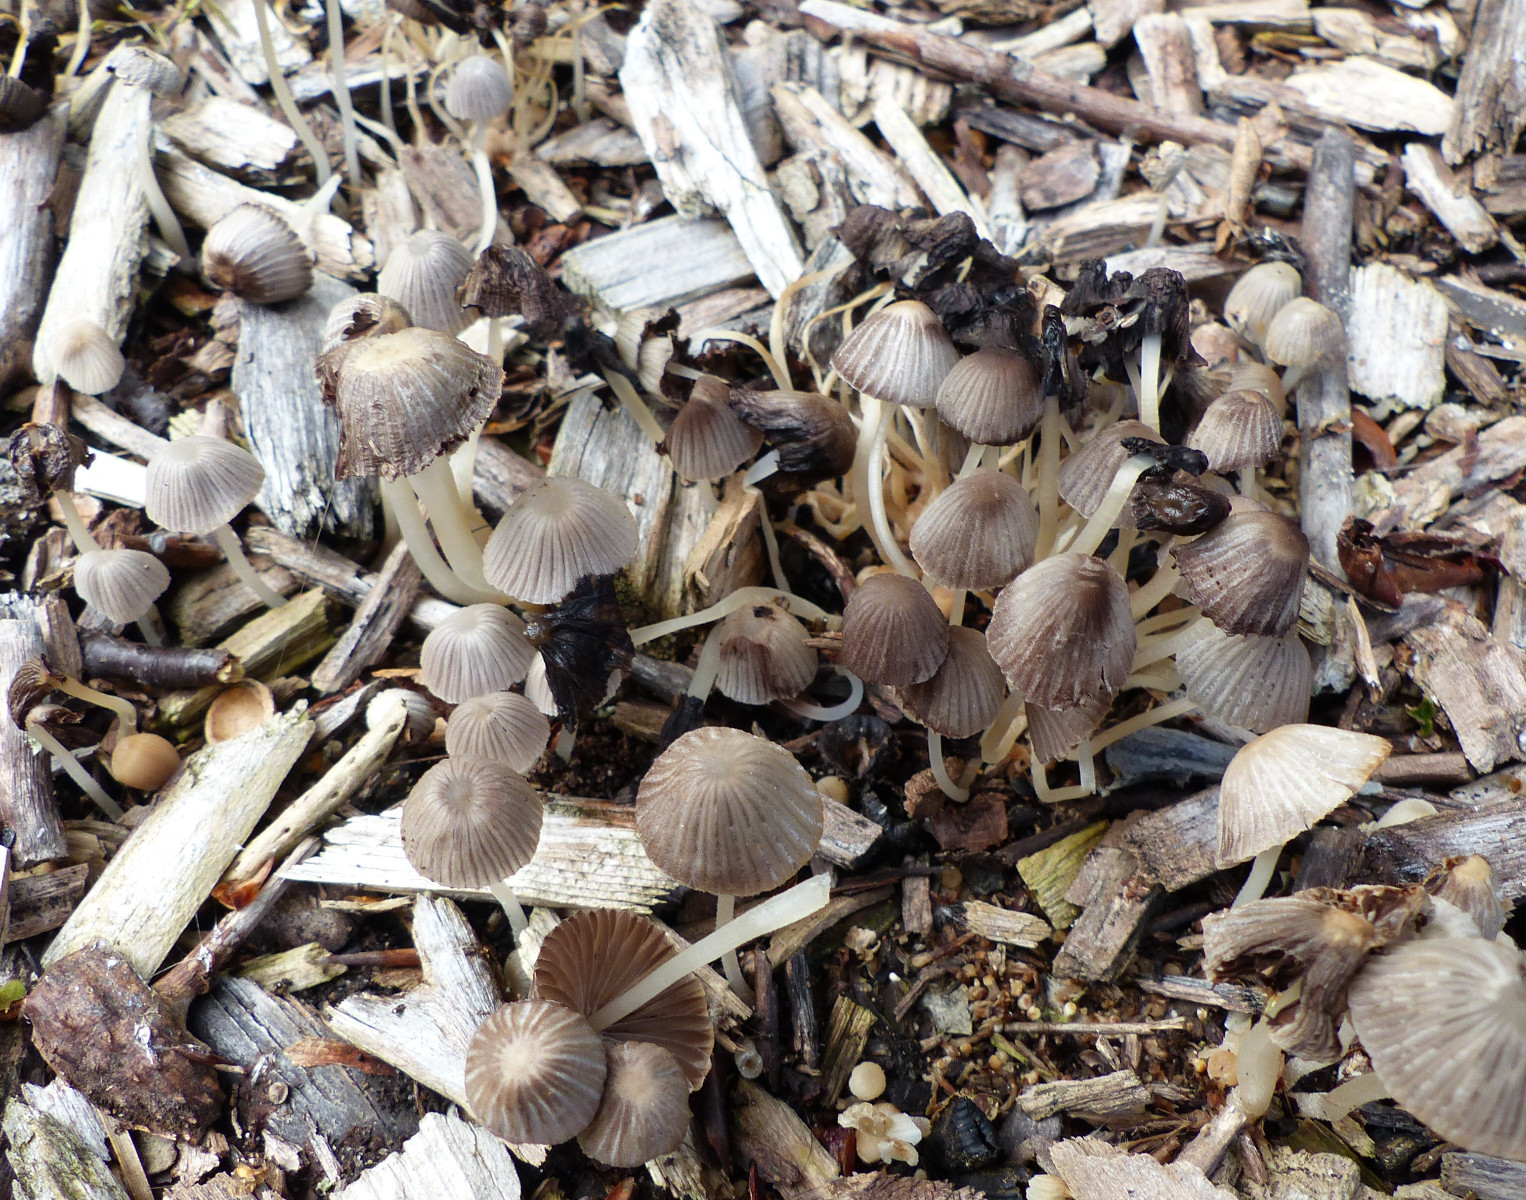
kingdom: Fungi
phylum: Basidiomycota
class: Agaricomycetes
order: Agaricales
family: Psathyrellaceae
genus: Coprinellus
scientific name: Coprinellus disseminatus
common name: bredsået blækhat
